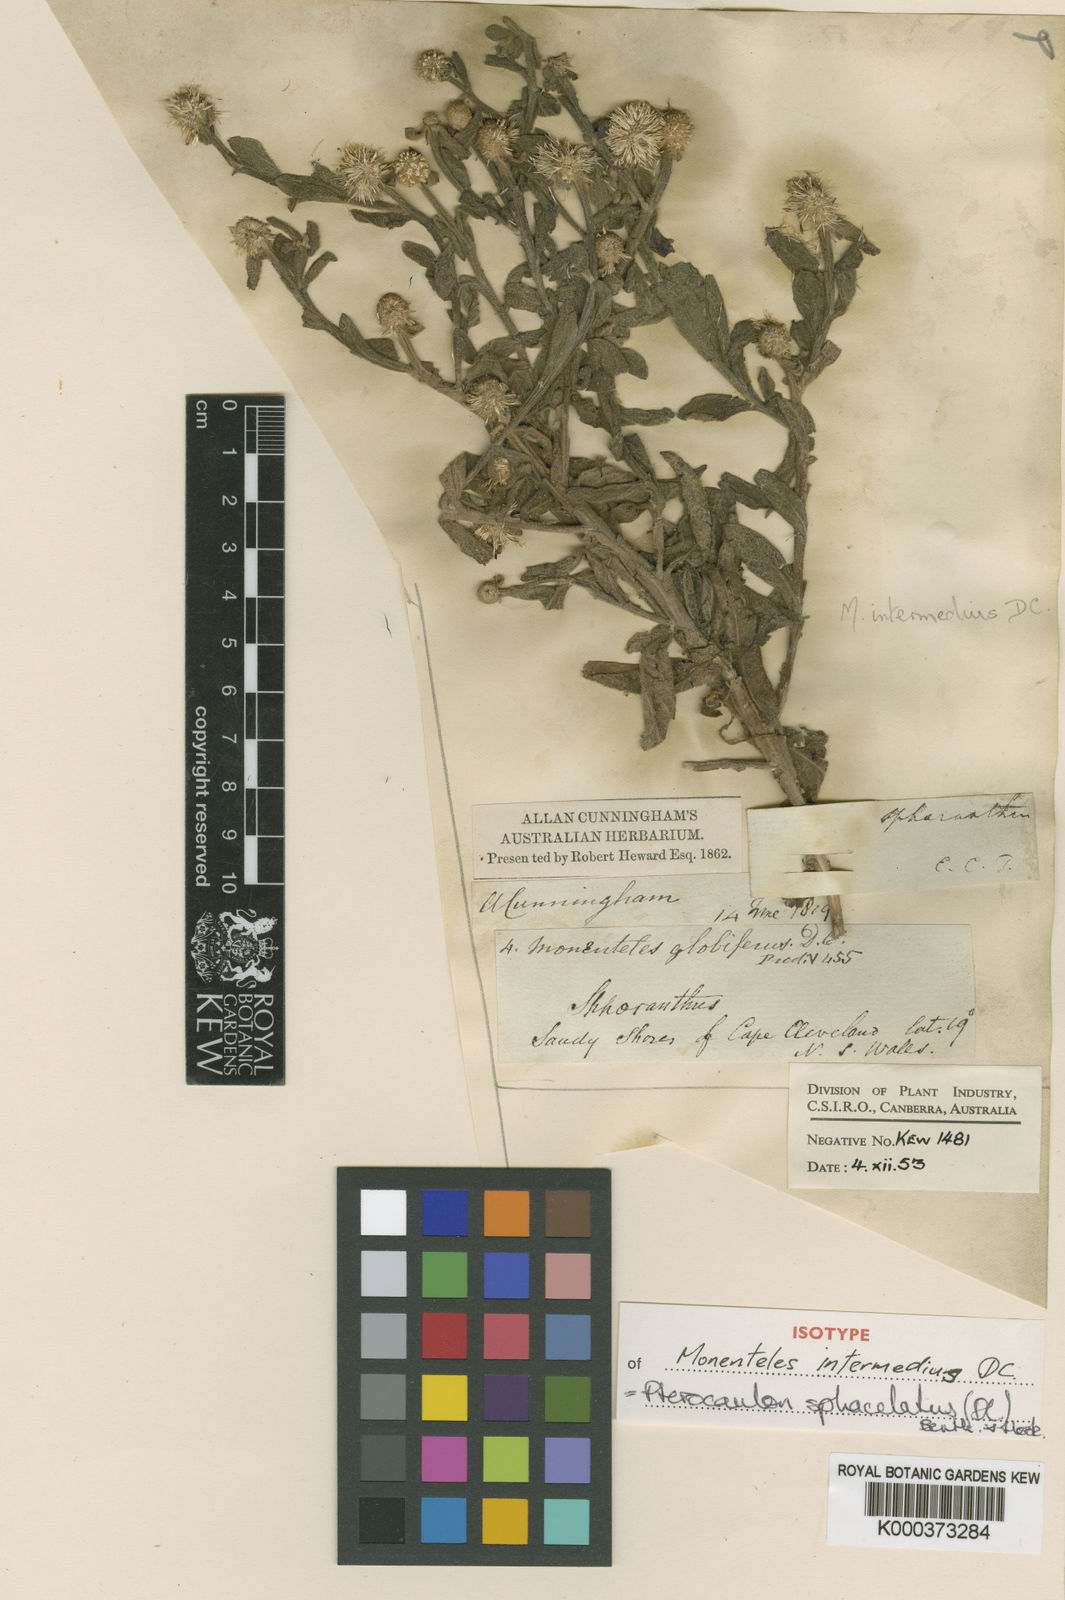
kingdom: Plantae
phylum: Tracheophyta
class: Magnoliopsida
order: Asterales
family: Asteraceae
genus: Pterocaulon
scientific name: Pterocaulon
